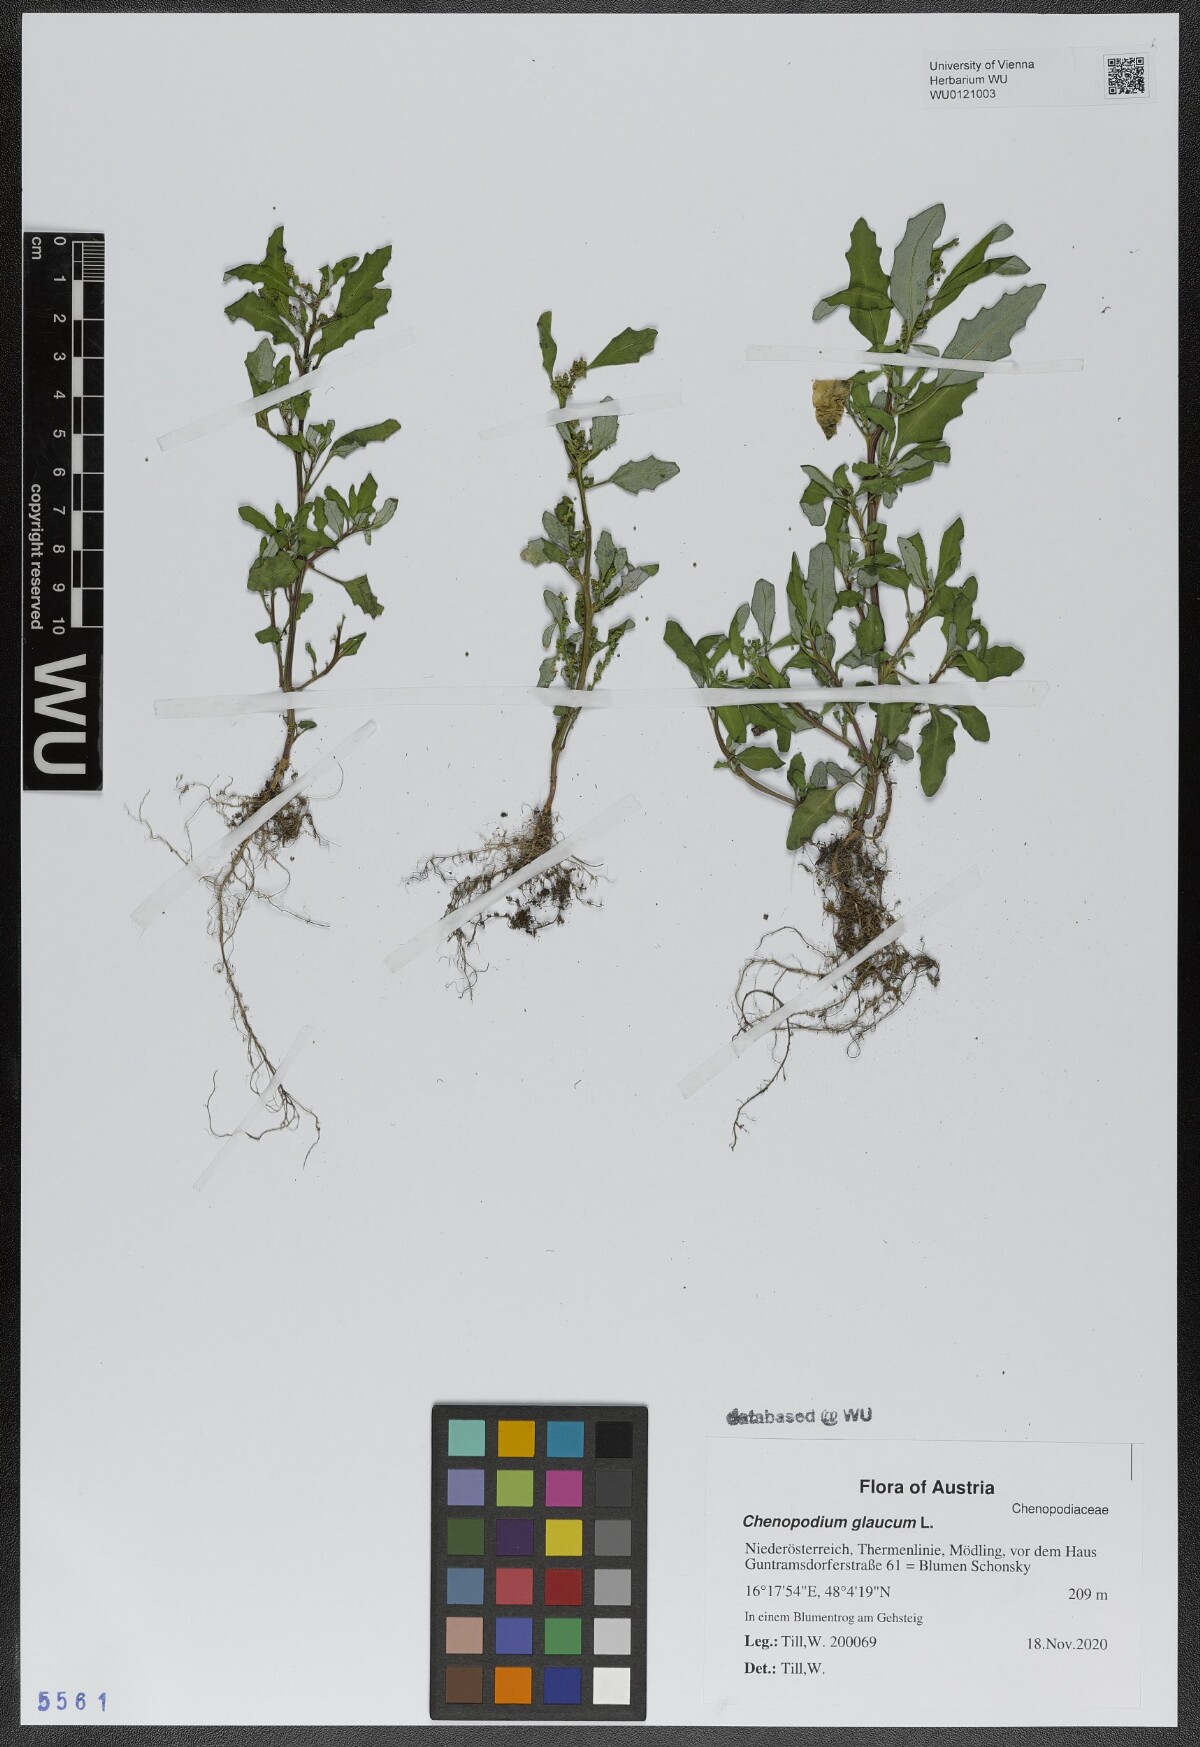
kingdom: Plantae
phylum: Tracheophyta
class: Magnoliopsida
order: Caryophyllales
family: Amaranthaceae
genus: Oxybasis
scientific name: Oxybasis glauca
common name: Glaucous goosefoot
